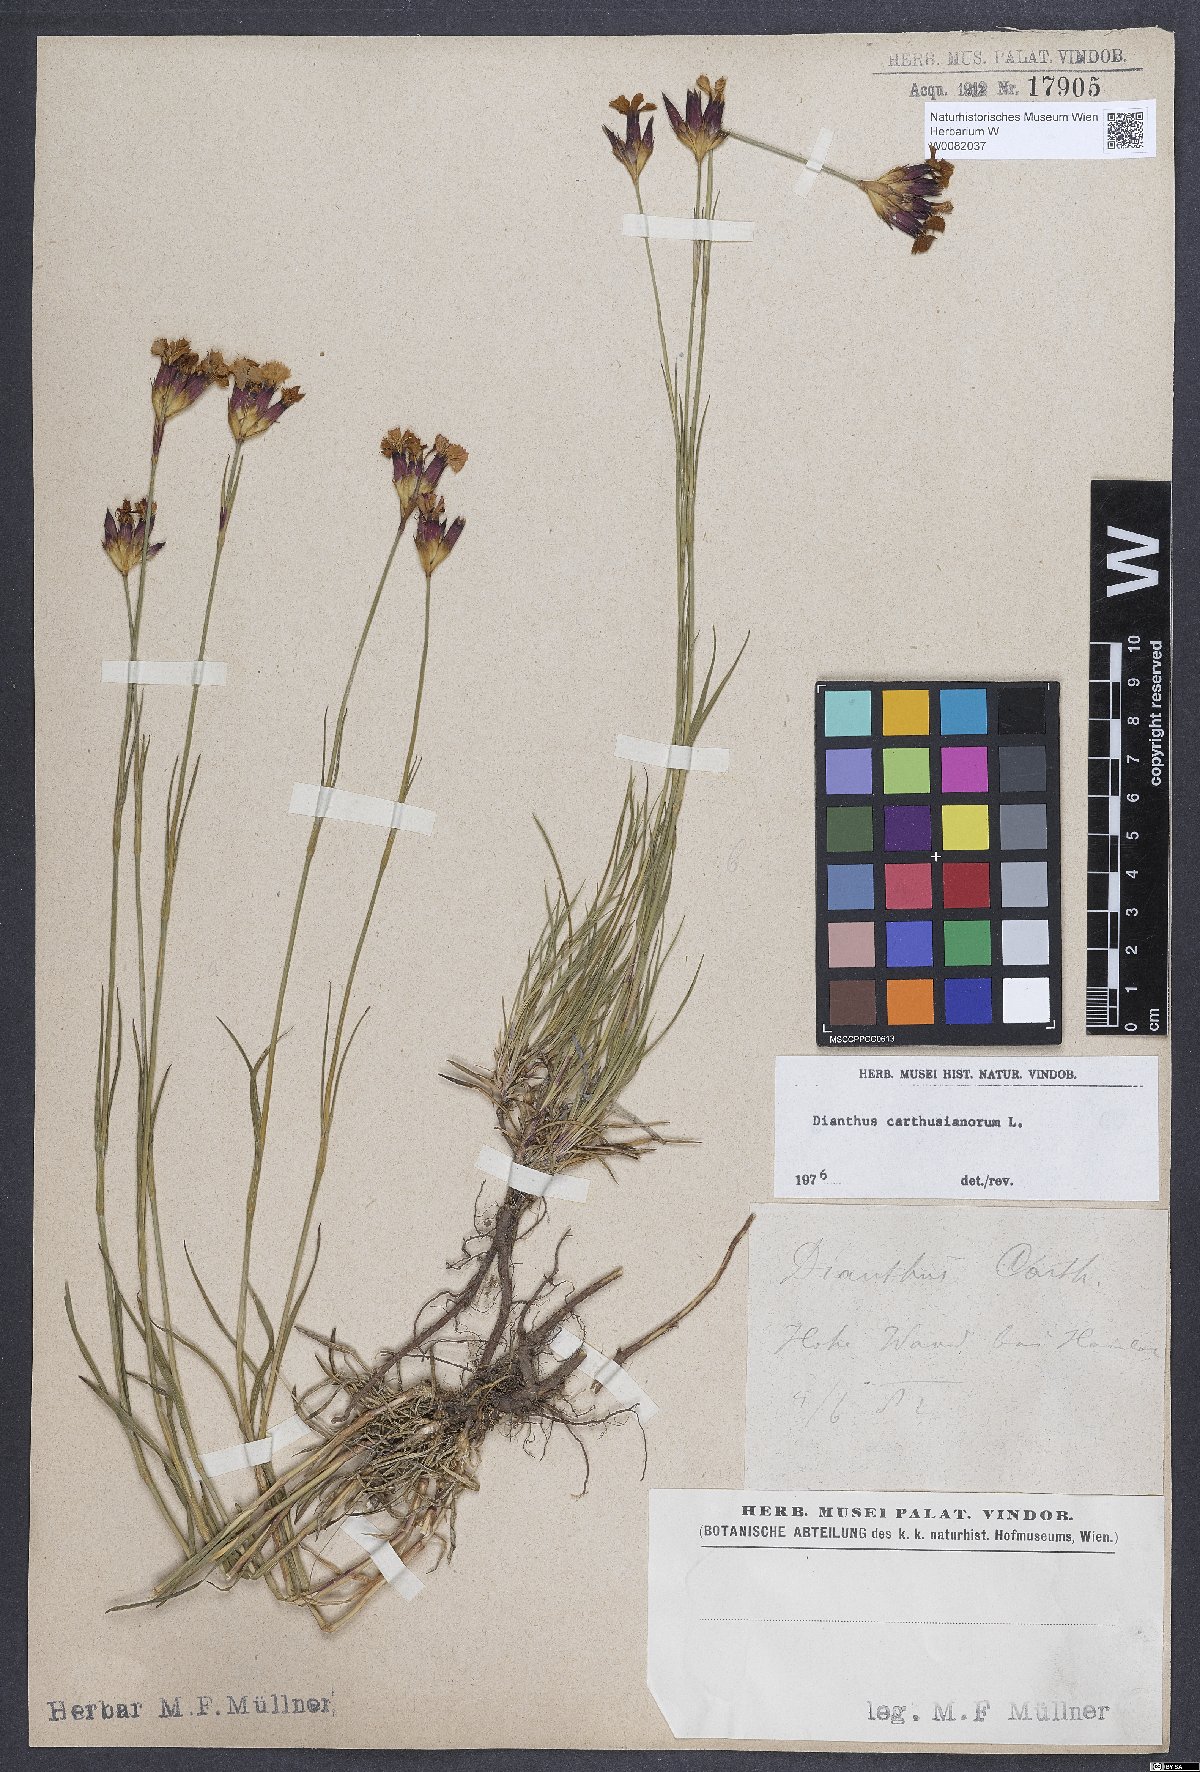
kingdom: Plantae
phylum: Tracheophyta
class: Magnoliopsida
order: Caryophyllales
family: Caryophyllaceae
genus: Dianthus
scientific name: Dianthus carthusianorum
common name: Carthusian pink
